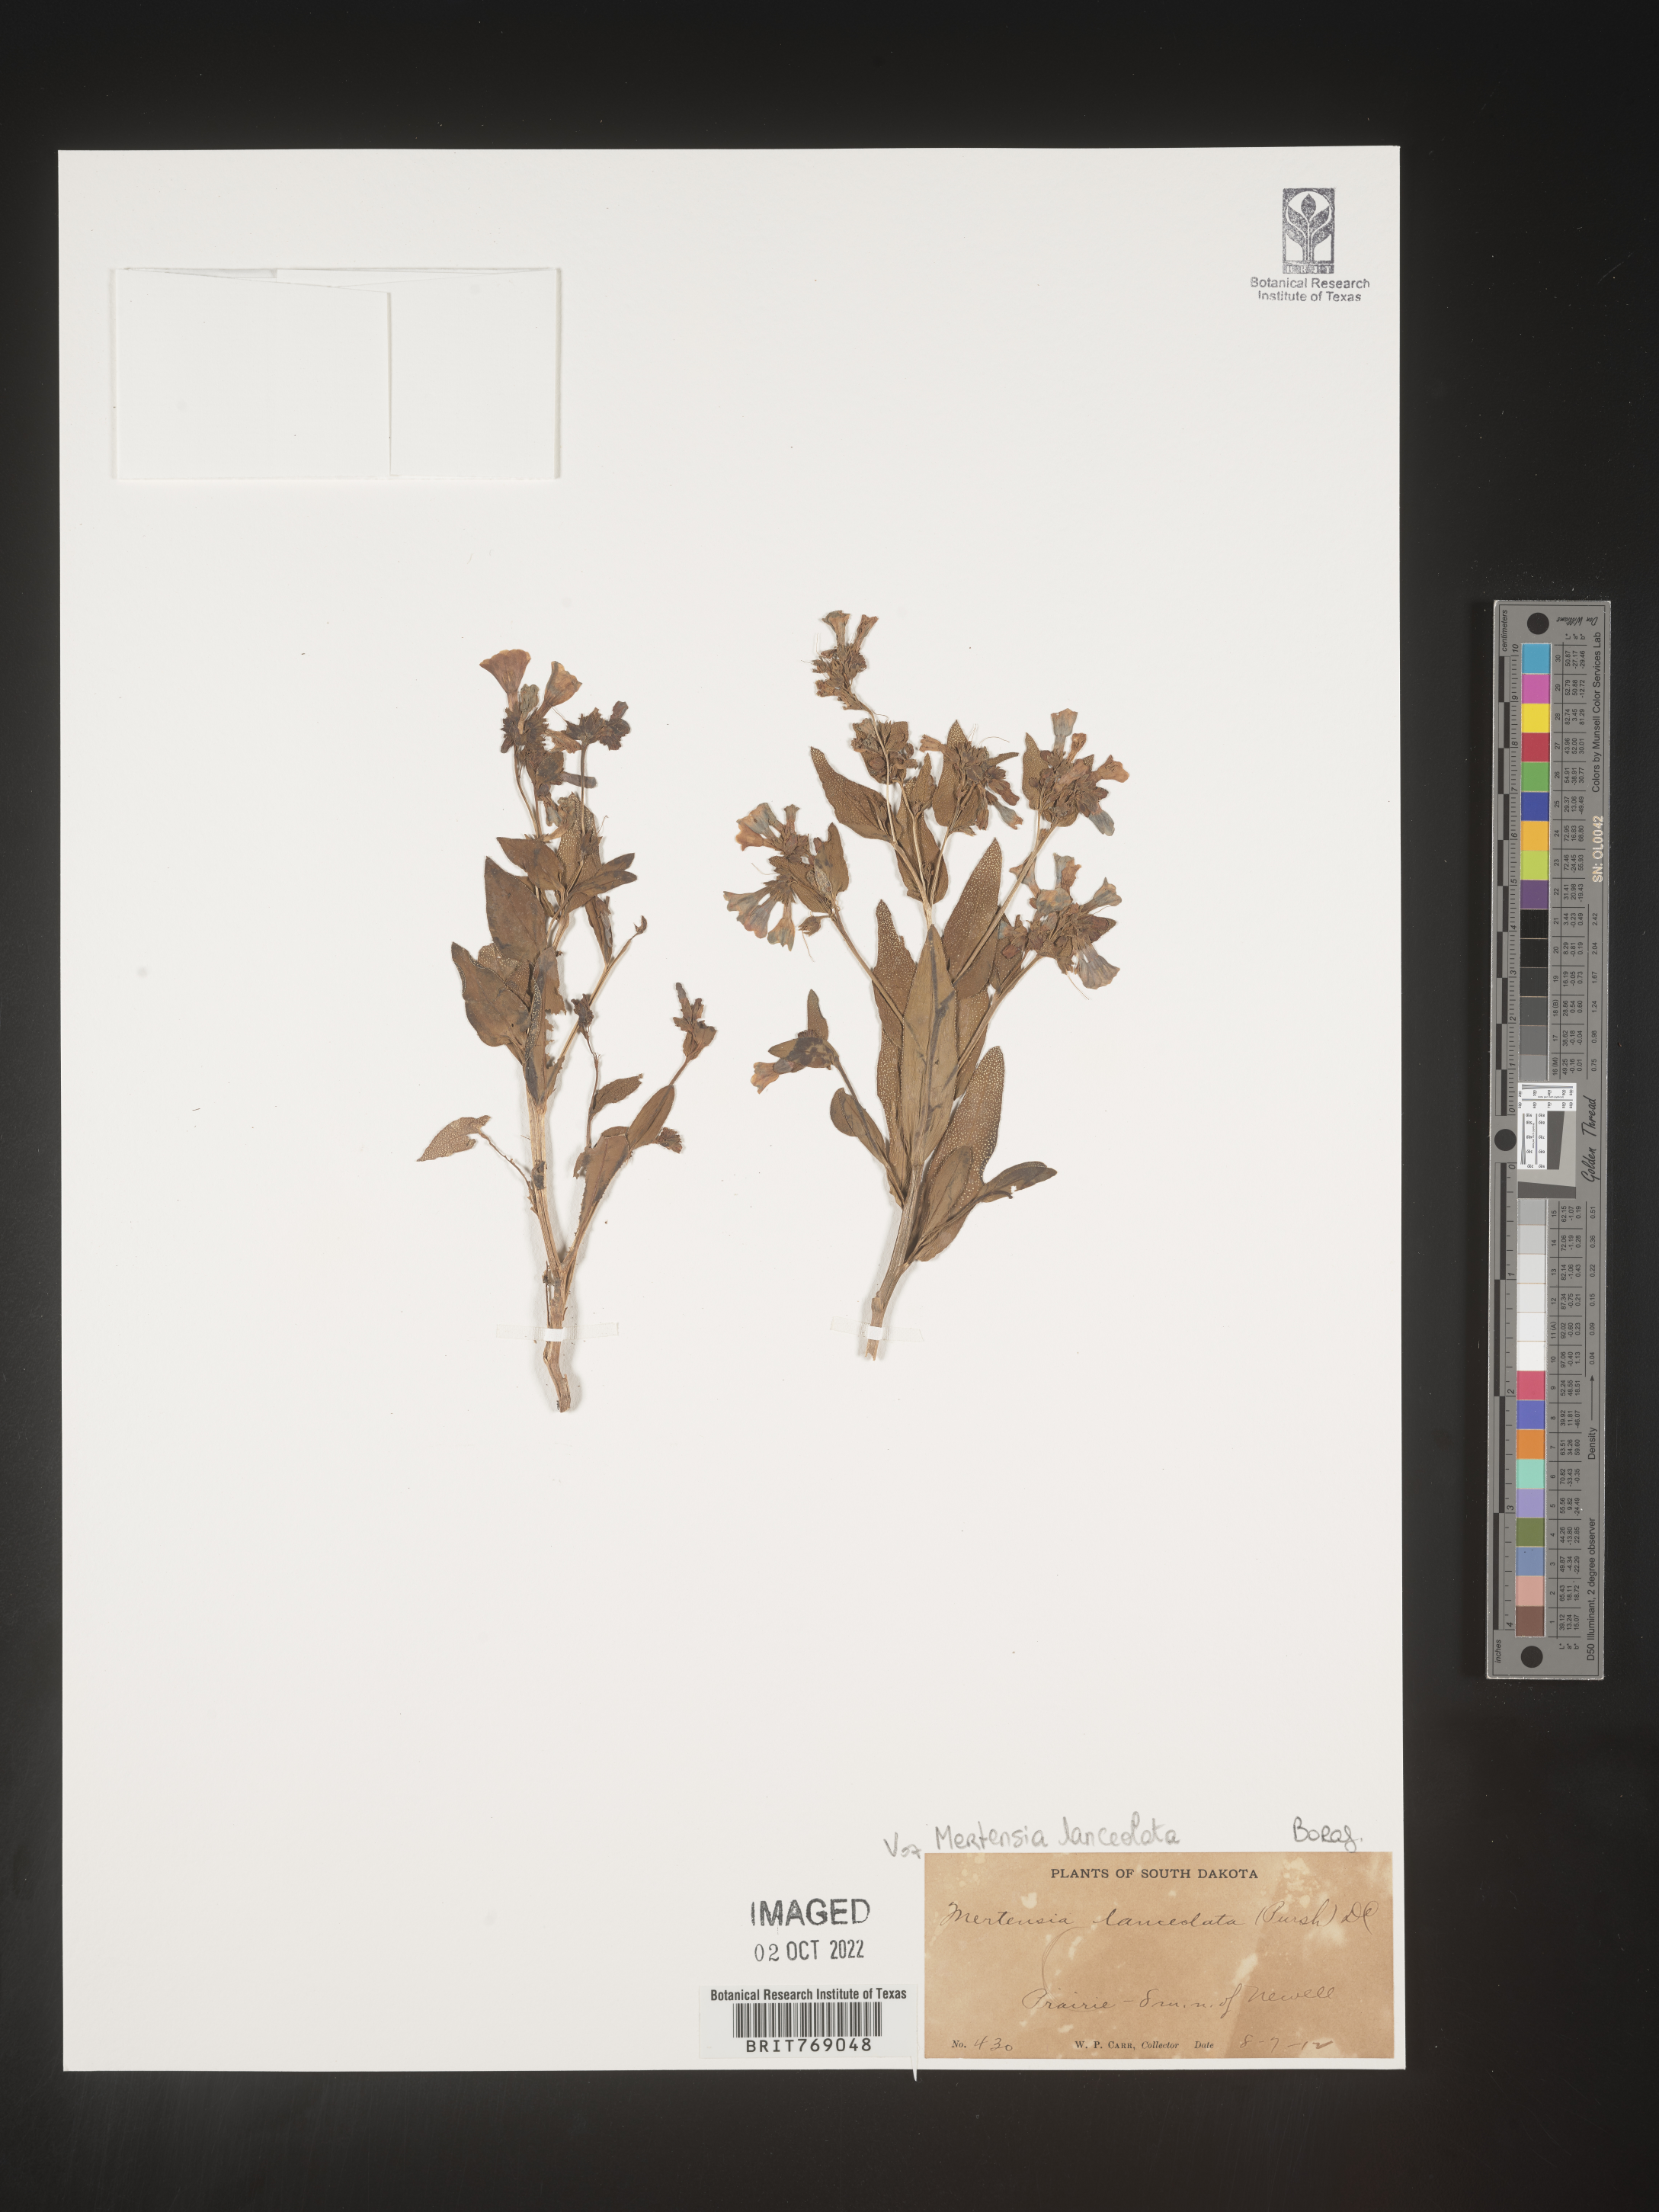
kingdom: Plantae
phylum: Tracheophyta
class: Magnoliopsida
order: Boraginales
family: Boraginaceae
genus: Mertensia
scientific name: Mertensia
